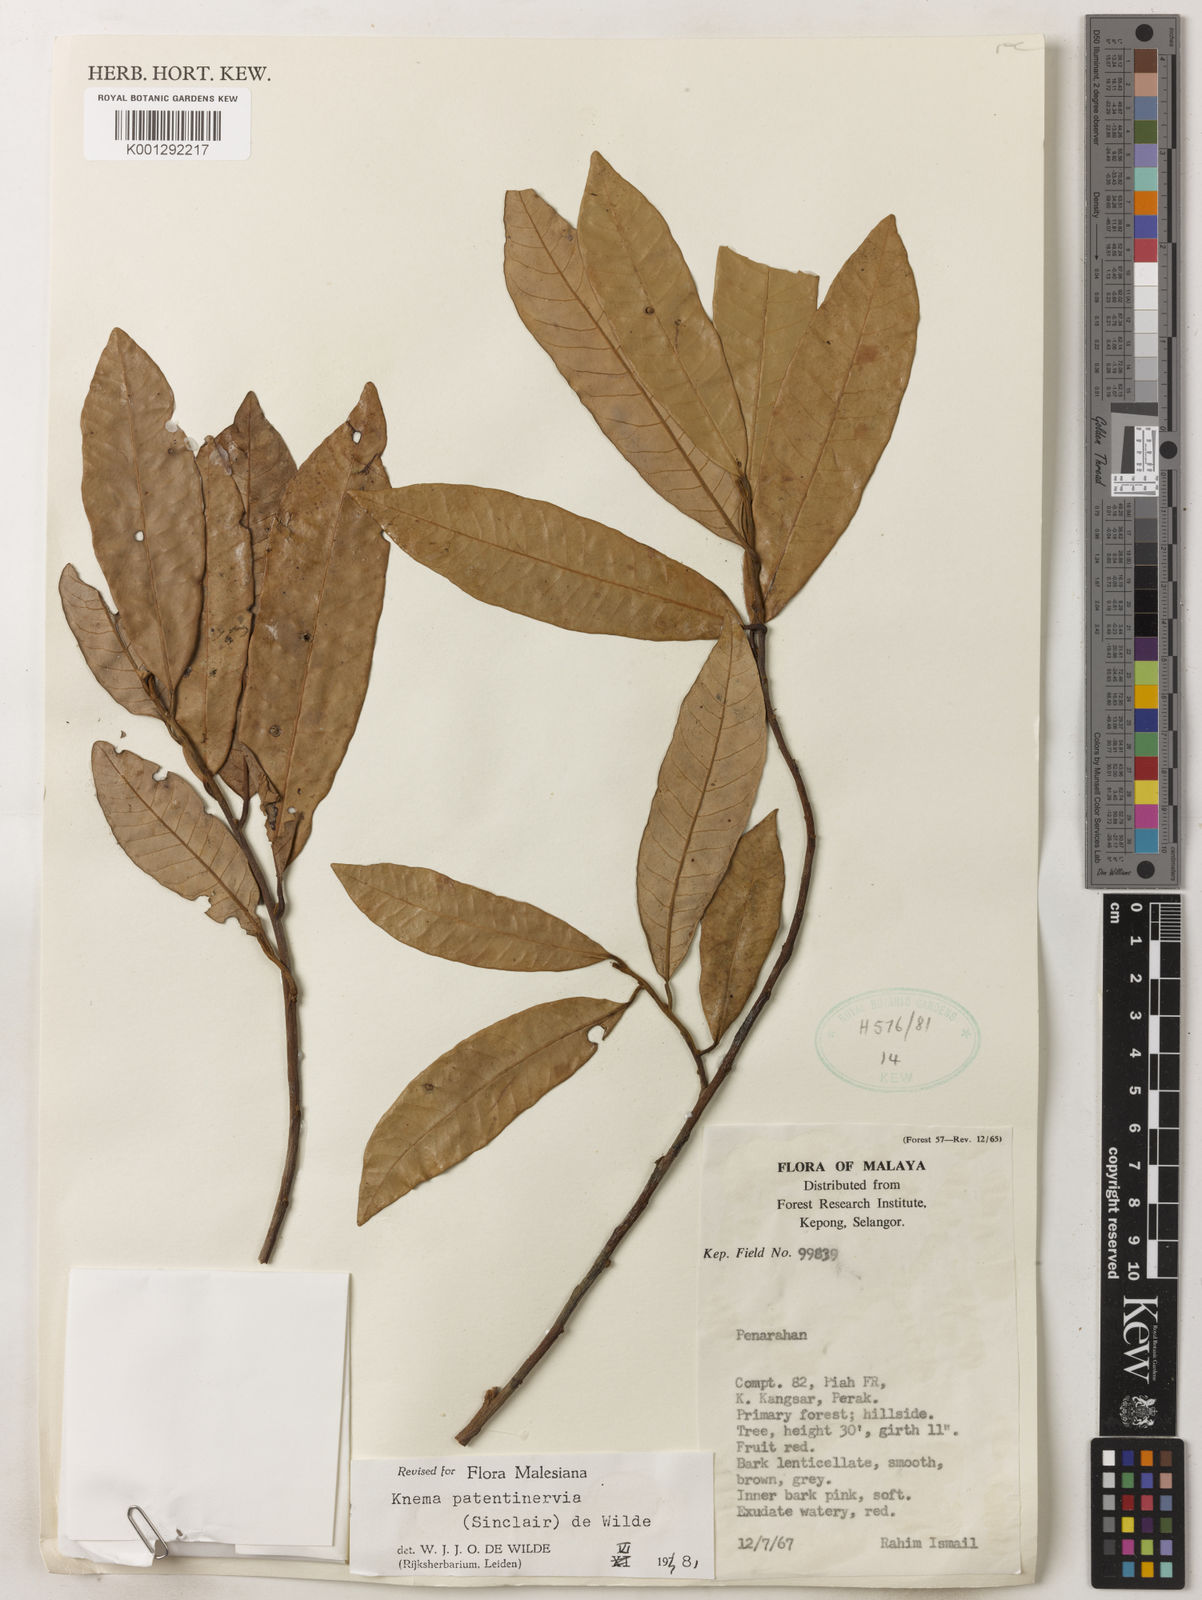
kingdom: Plantae
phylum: Tracheophyta
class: Magnoliopsida
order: Magnoliales
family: Myristicaceae
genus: Knema
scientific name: Knema patentinervia
